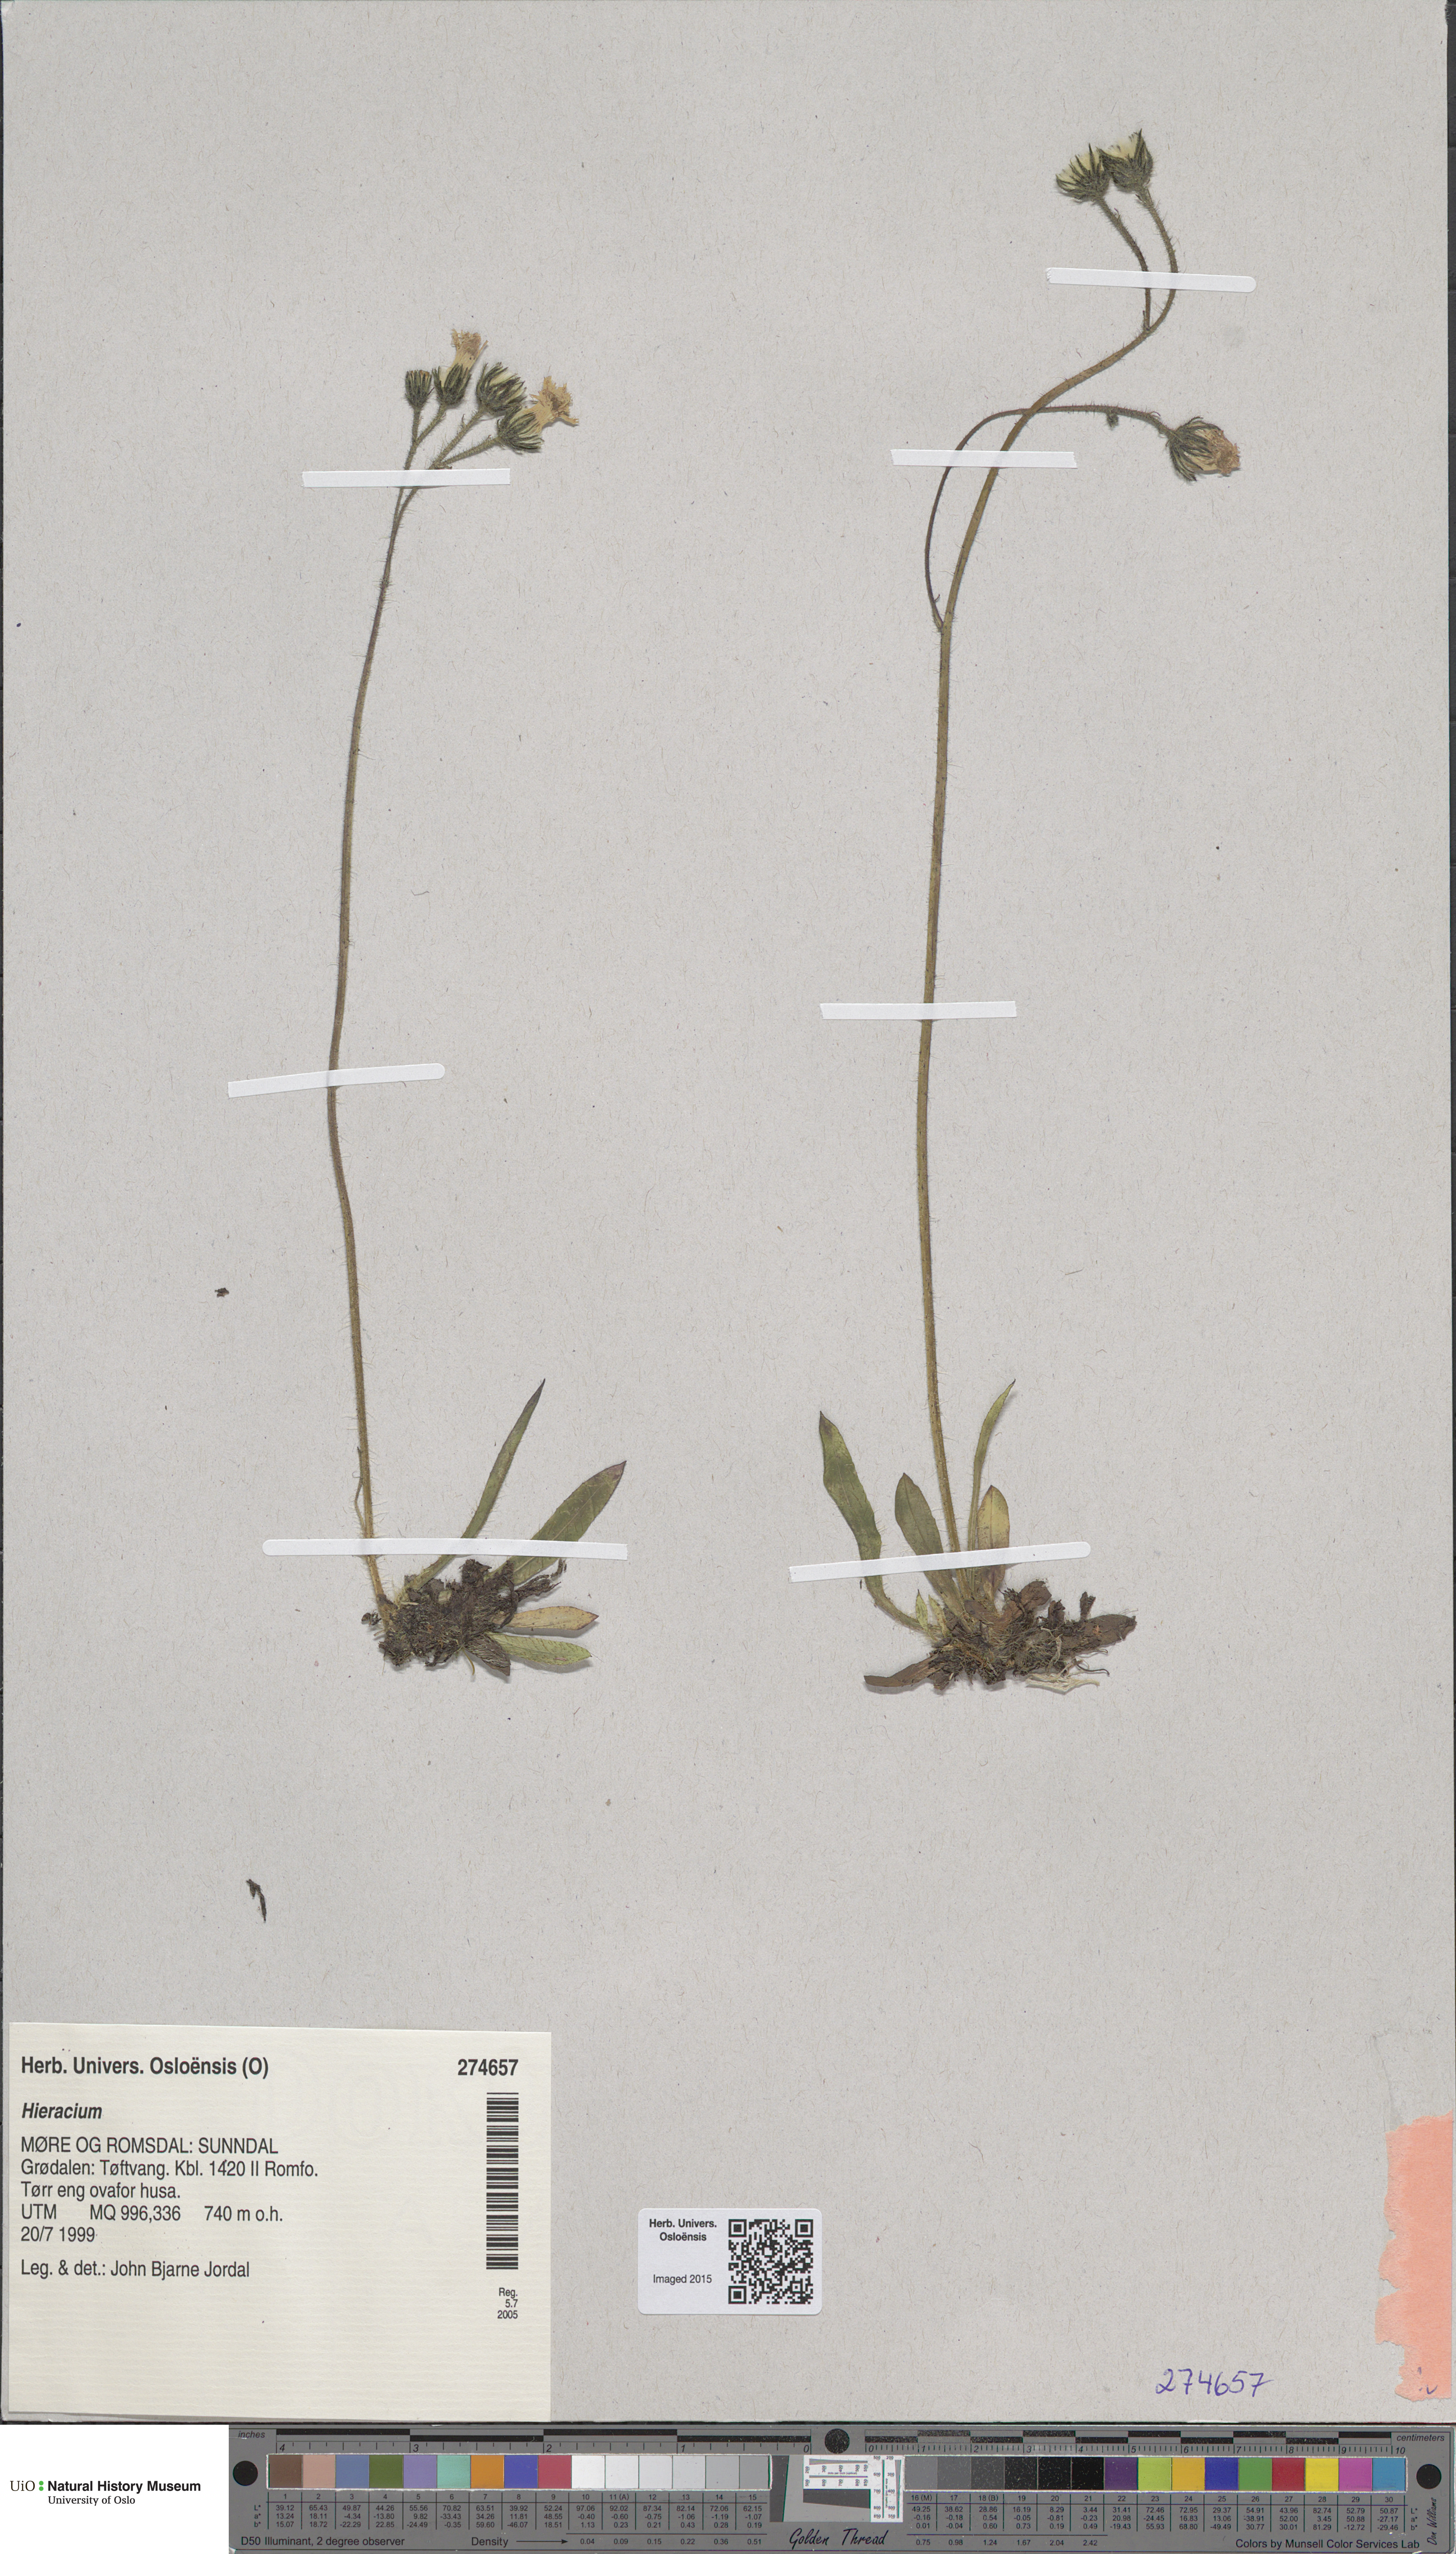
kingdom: Plantae
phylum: Tracheophyta
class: Magnoliopsida
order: Asterales
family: Asteraceae
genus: Hieracium
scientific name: Hieracium
